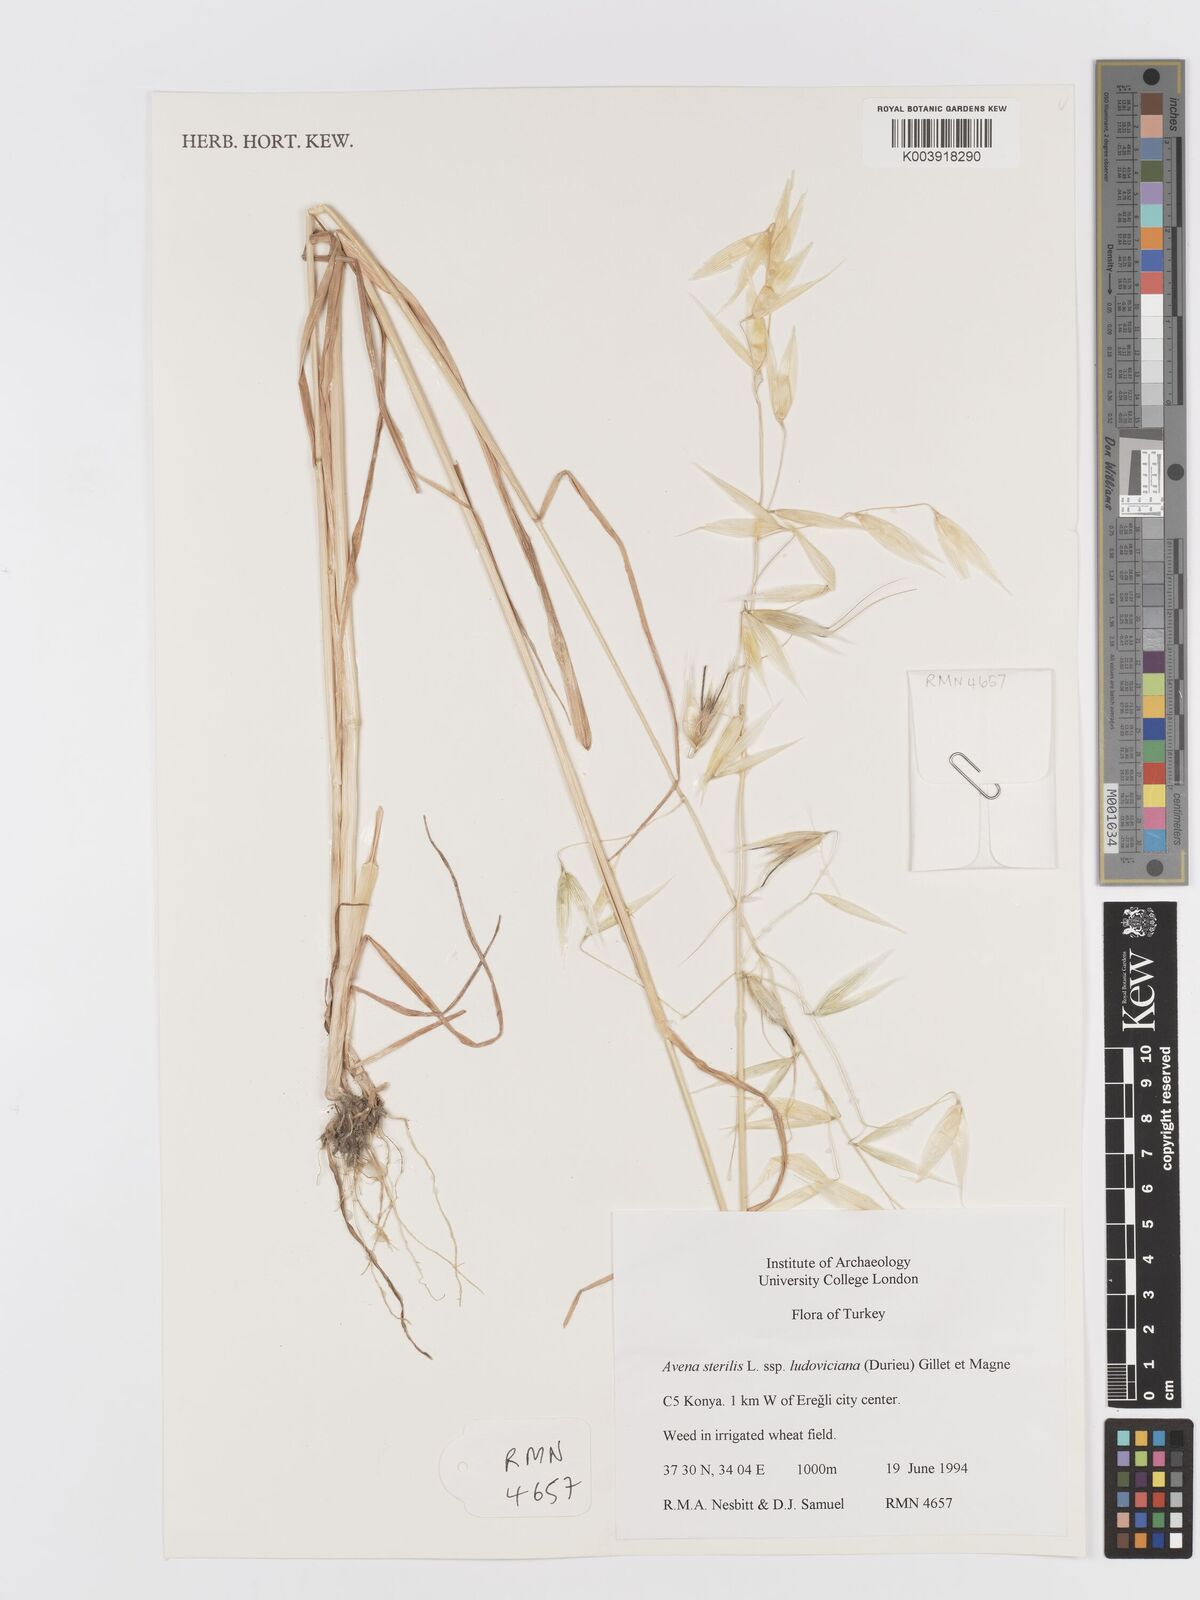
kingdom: Plantae
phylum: Tracheophyta
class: Liliopsida
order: Poales
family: Poaceae
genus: Avena
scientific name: Avena sterilis
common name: Animated oat
